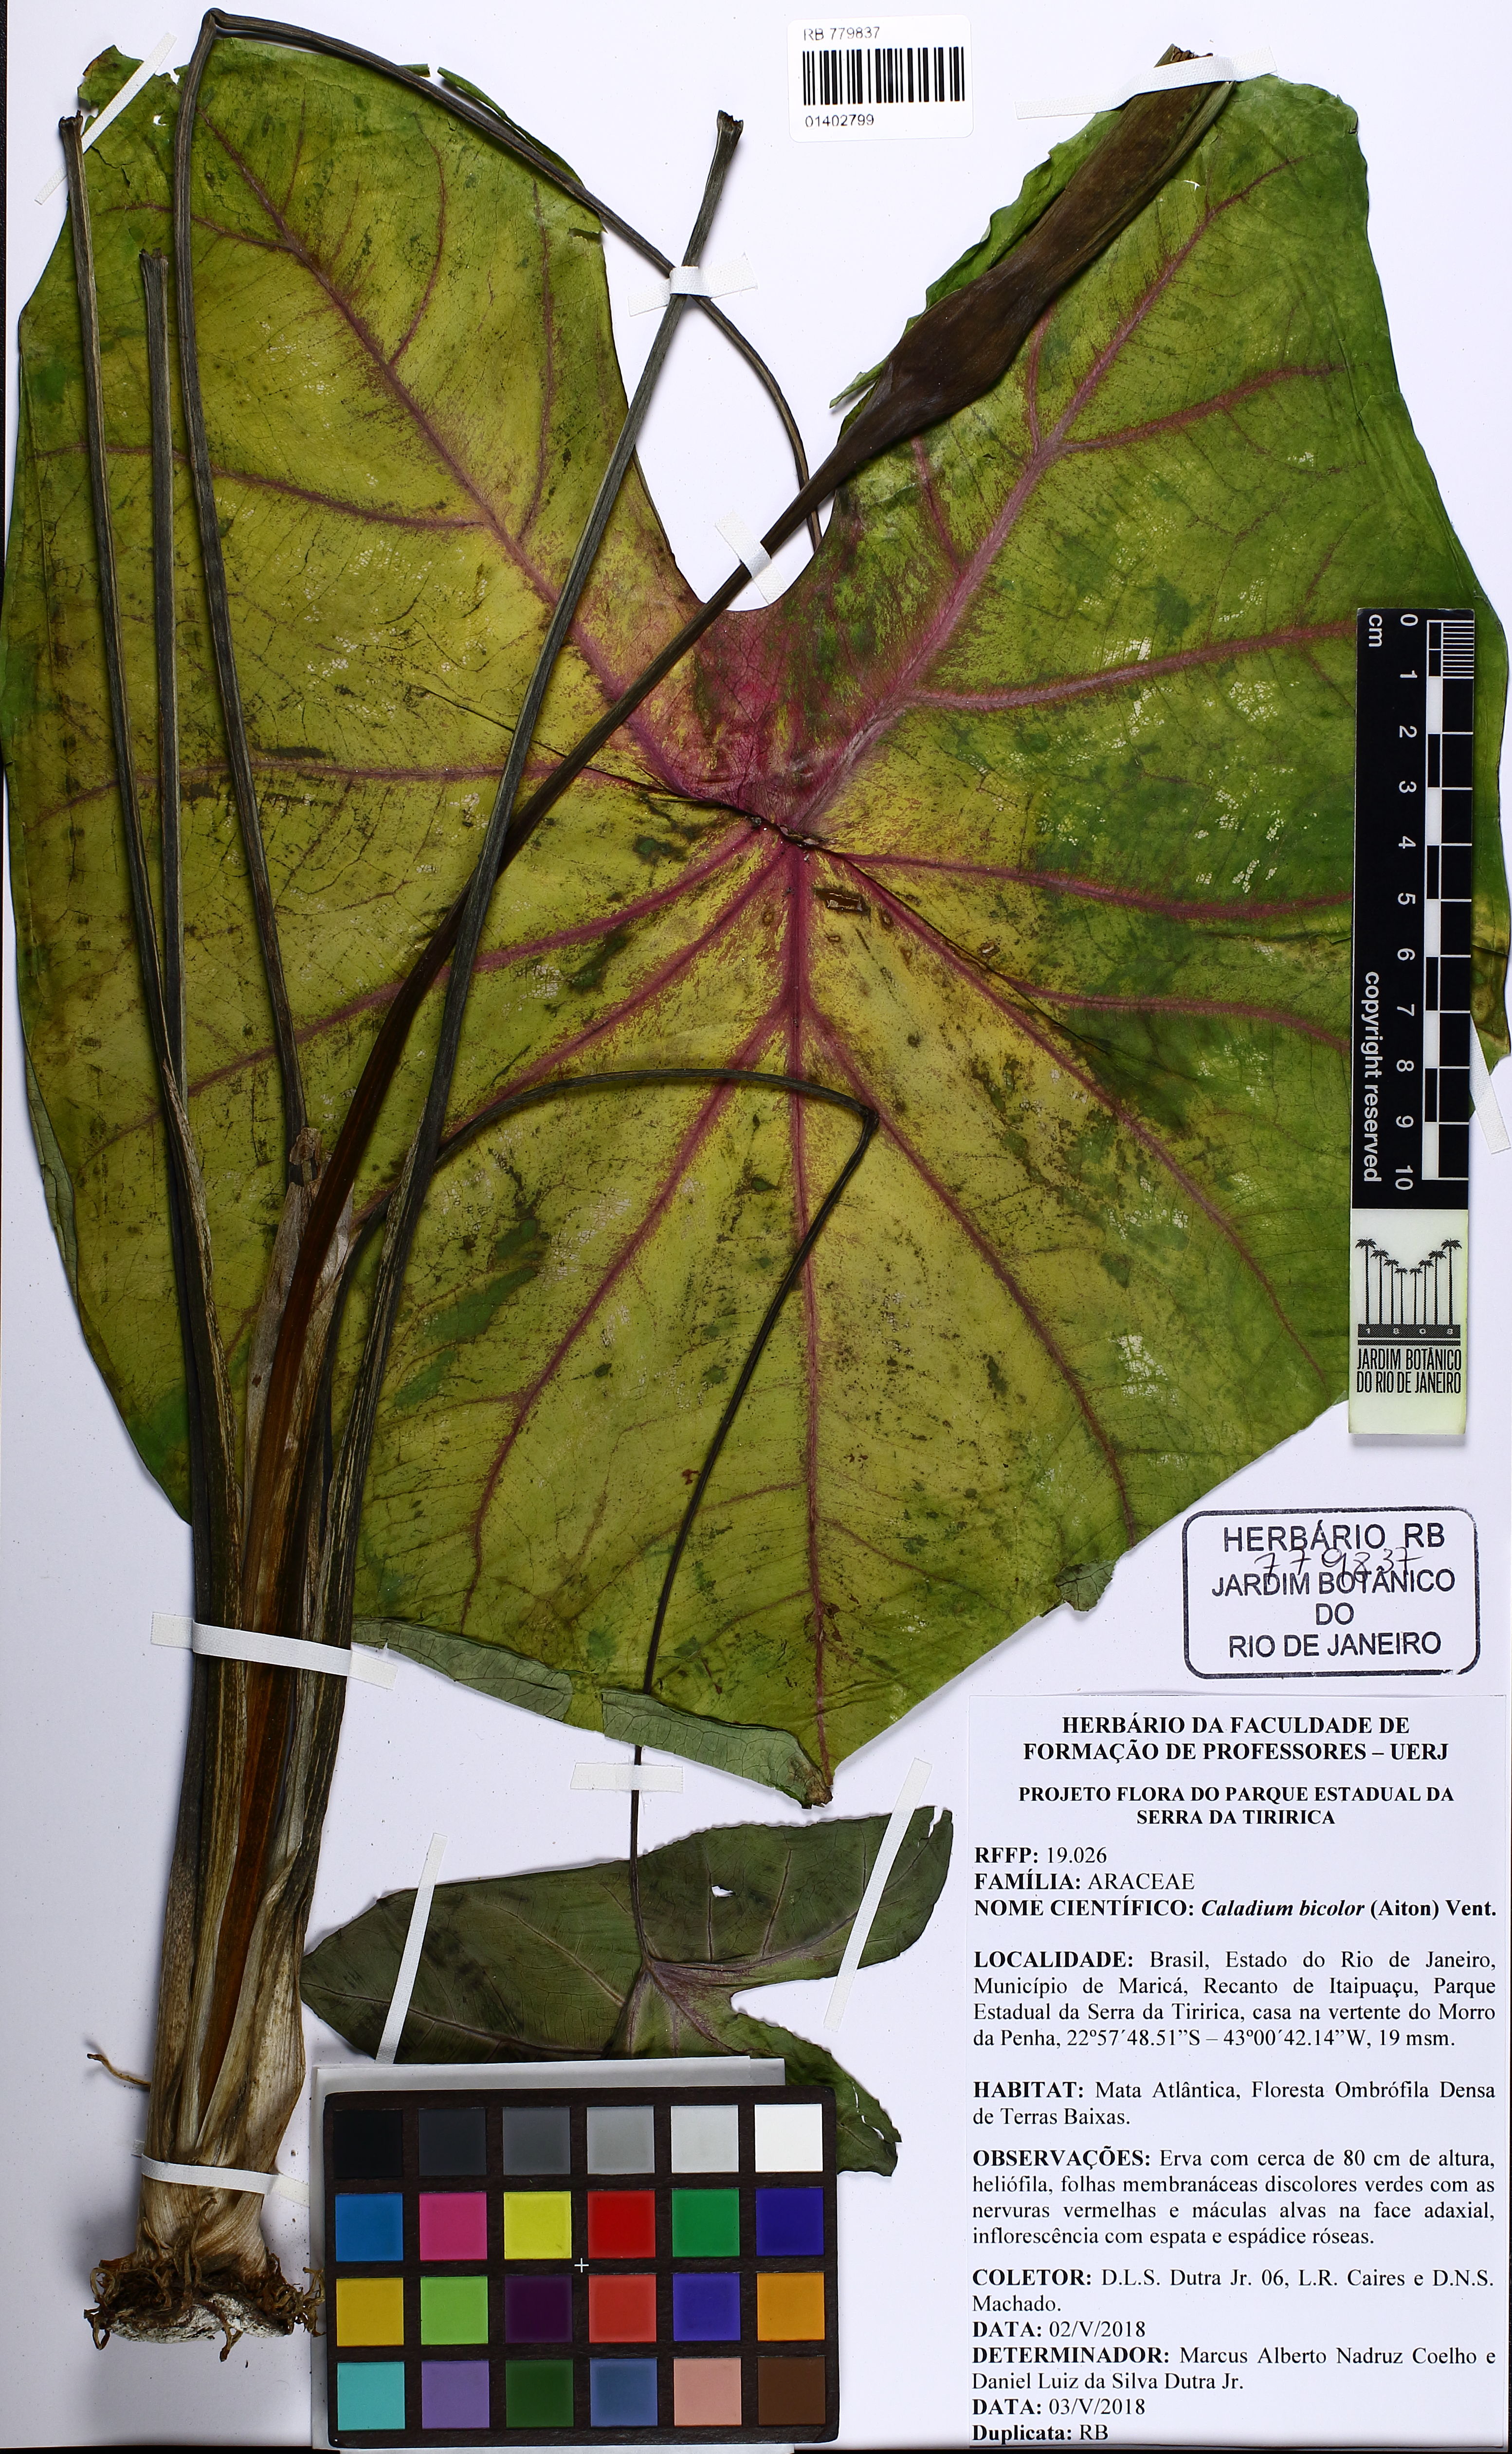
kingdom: Plantae
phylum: Tracheophyta
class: Liliopsida
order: Alismatales
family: Araceae
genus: Caladium
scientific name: Caladium bicolor
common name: Artist's pallet
